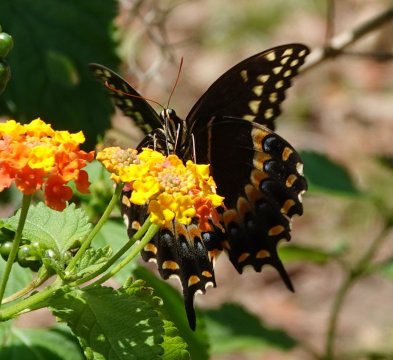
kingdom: Animalia
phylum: Arthropoda
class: Insecta
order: Lepidoptera
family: Papilionidae
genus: Pterourus
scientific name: Pterourus palamedes
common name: Palamedes Swallowtail
